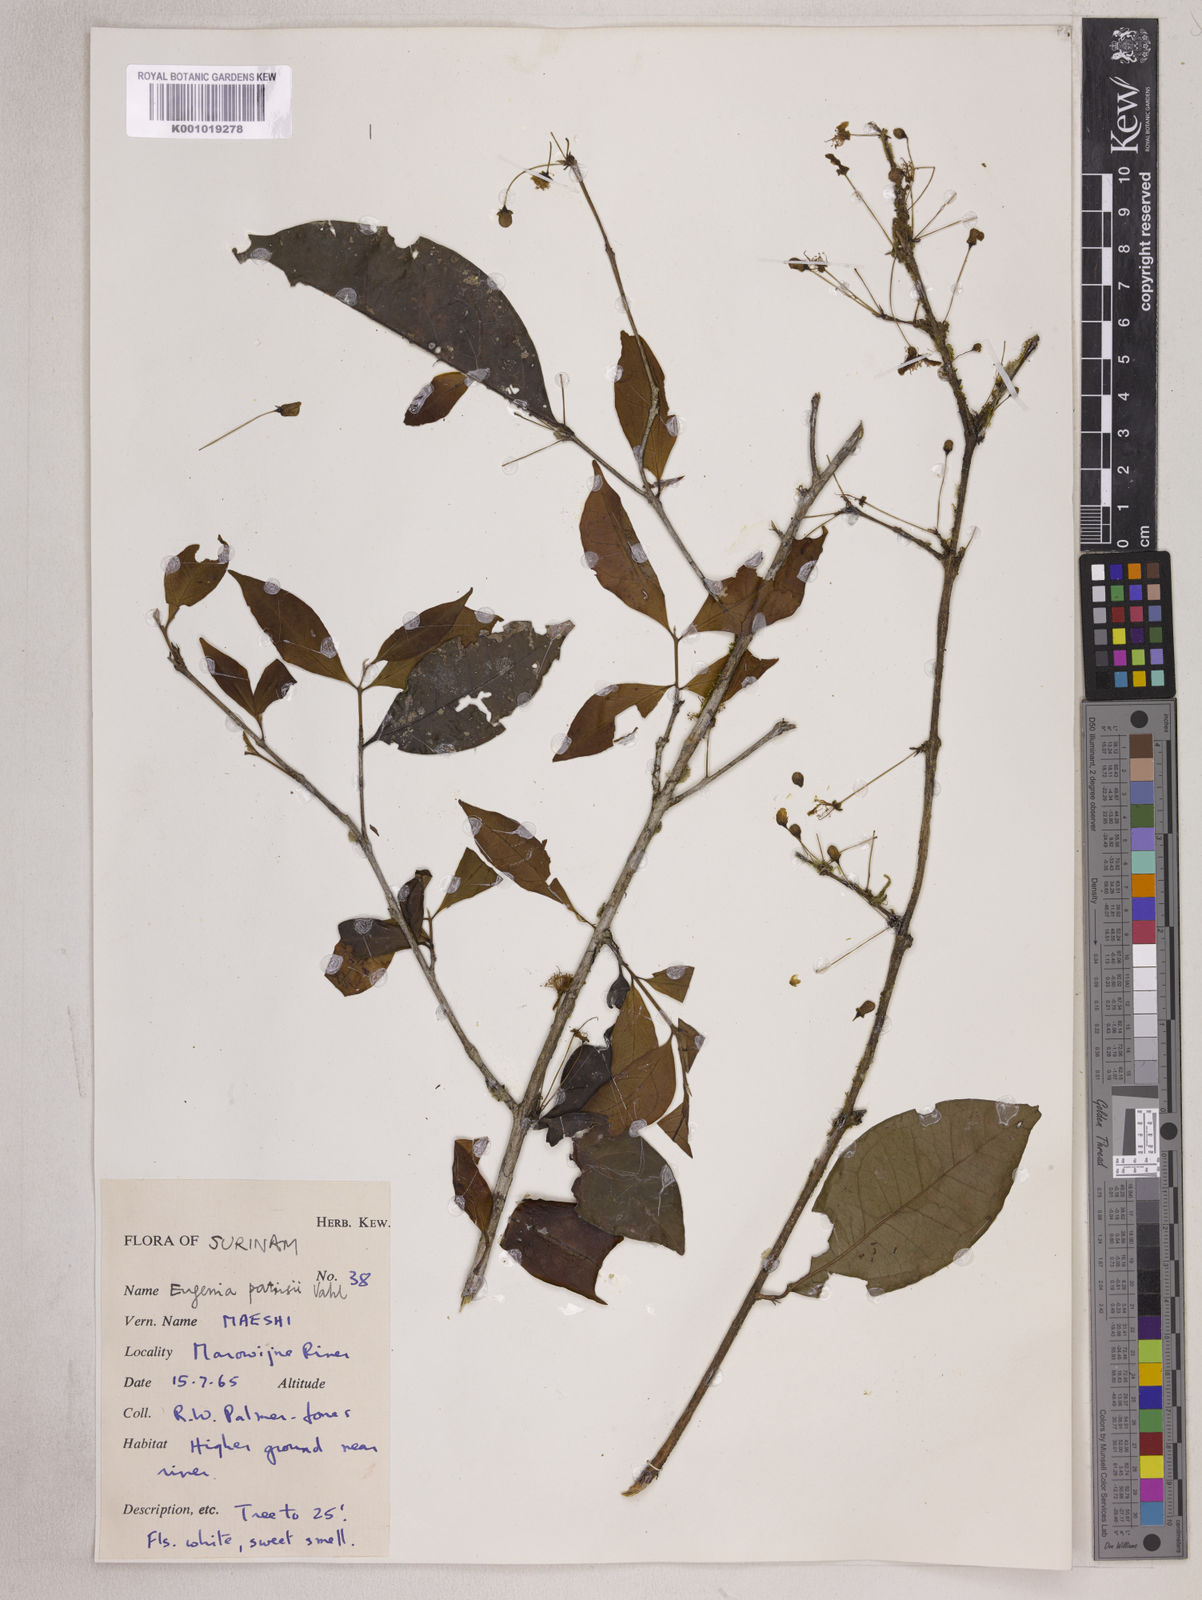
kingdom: Plantae
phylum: Tracheophyta
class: Magnoliopsida
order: Myrtales
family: Myrtaceae
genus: Eugenia
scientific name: Eugenia patrisii
